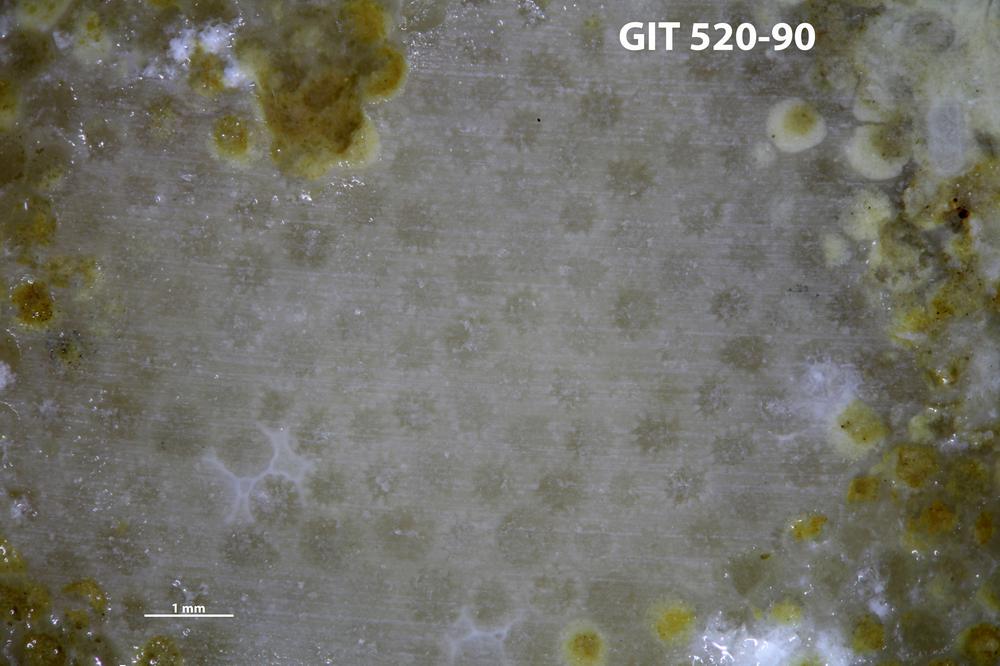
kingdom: Animalia
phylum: Cnidaria
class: Anthozoa
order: Heliolitina
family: Proheliolitidae
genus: Protoheliolites
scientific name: Protoheliolites
